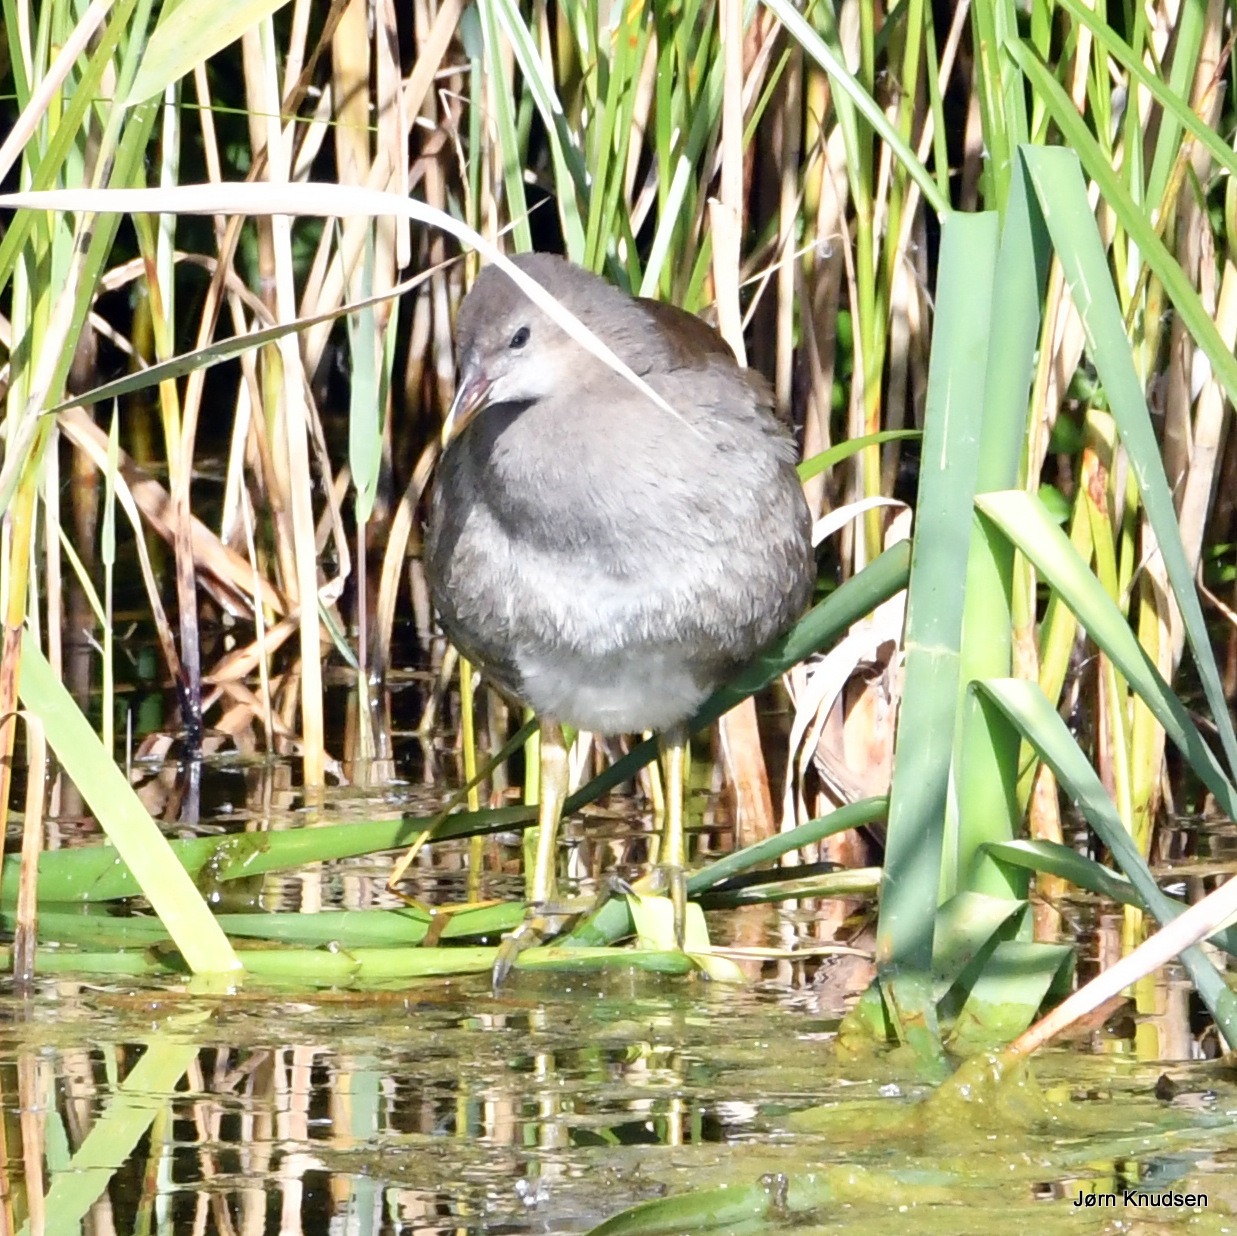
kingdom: Animalia
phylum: Chordata
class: Aves
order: Gruiformes
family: Rallidae
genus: Gallinula
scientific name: Gallinula chloropus
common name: Grønbenet rørhøne
